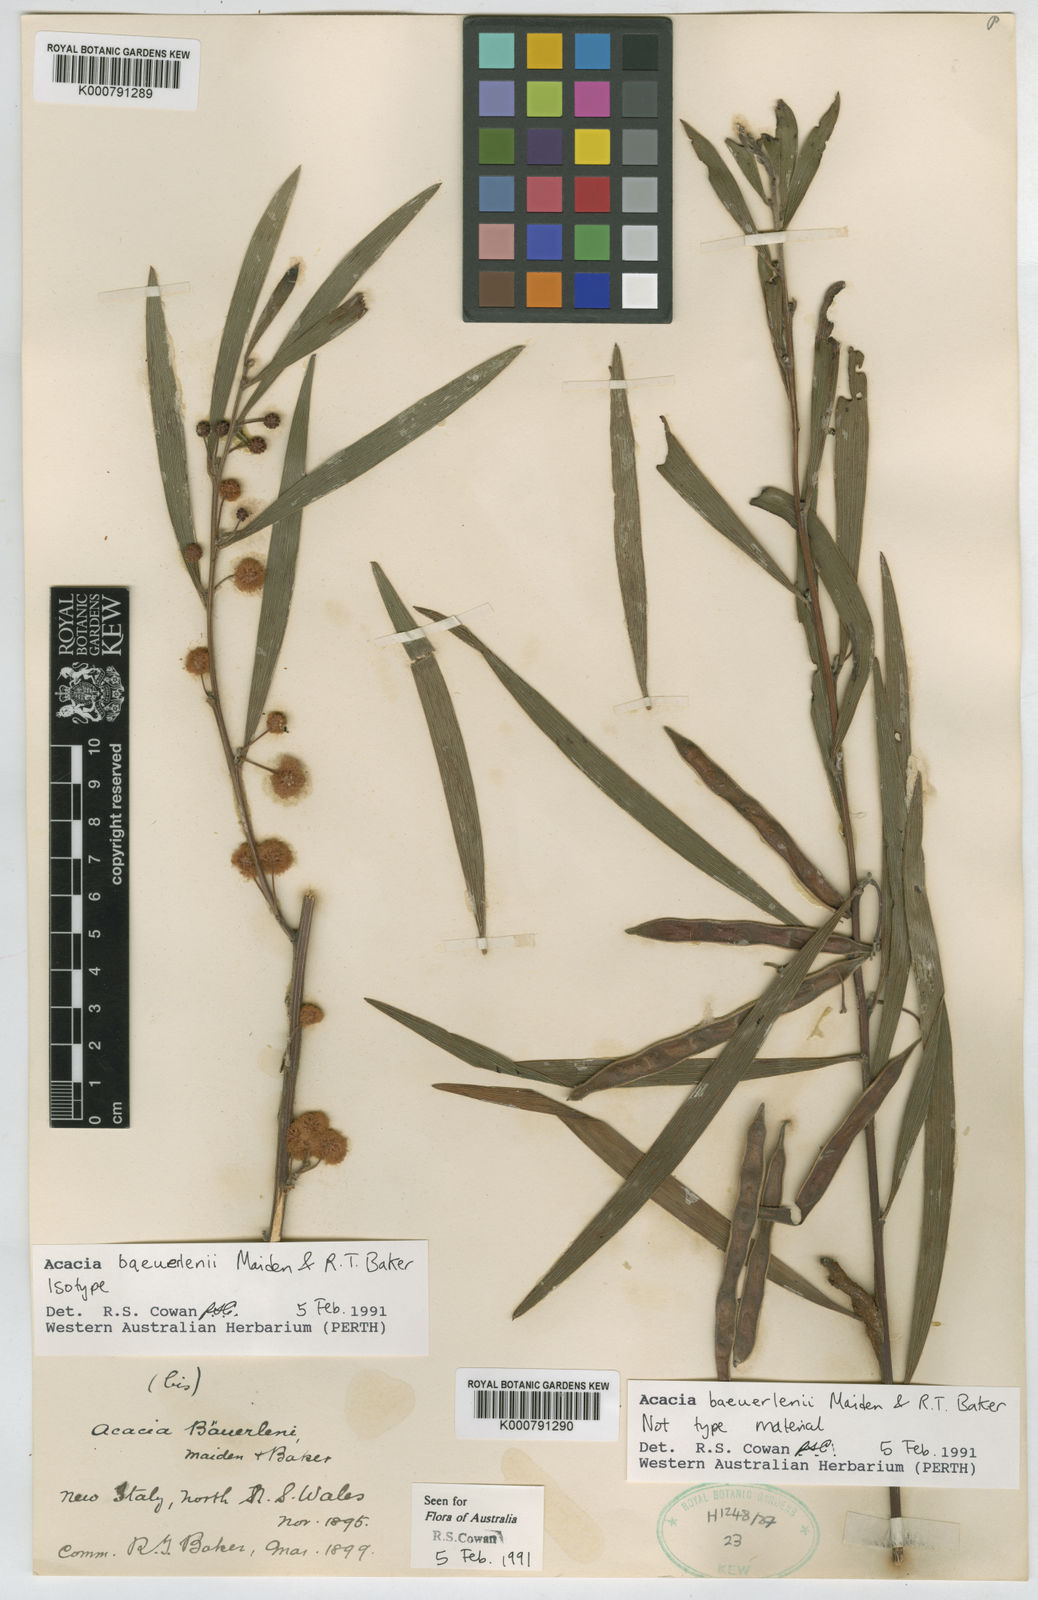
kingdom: Plantae
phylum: Tracheophyta
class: Magnoliopsida
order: Fabales
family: Fabaceae
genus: Acacia
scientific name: Acacia baeuerlenii
